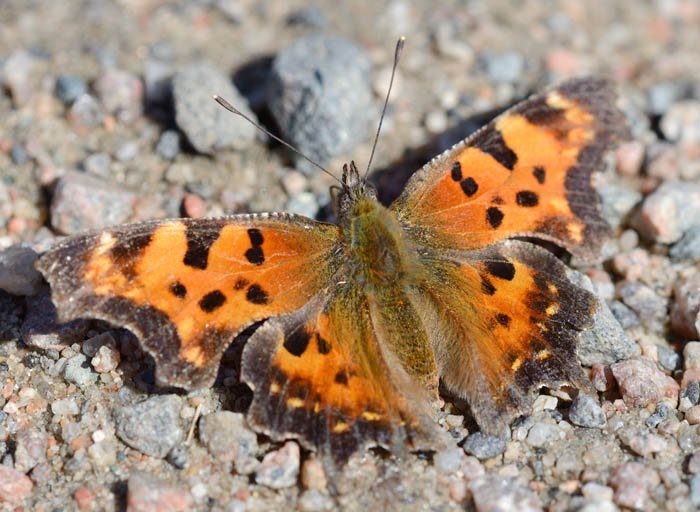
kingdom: Animalia
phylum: Arthropoda
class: Insecta
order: Lepidoptera
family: Nymphalidae
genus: Polygonia
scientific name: Polygonia faunus
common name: Green Comma
